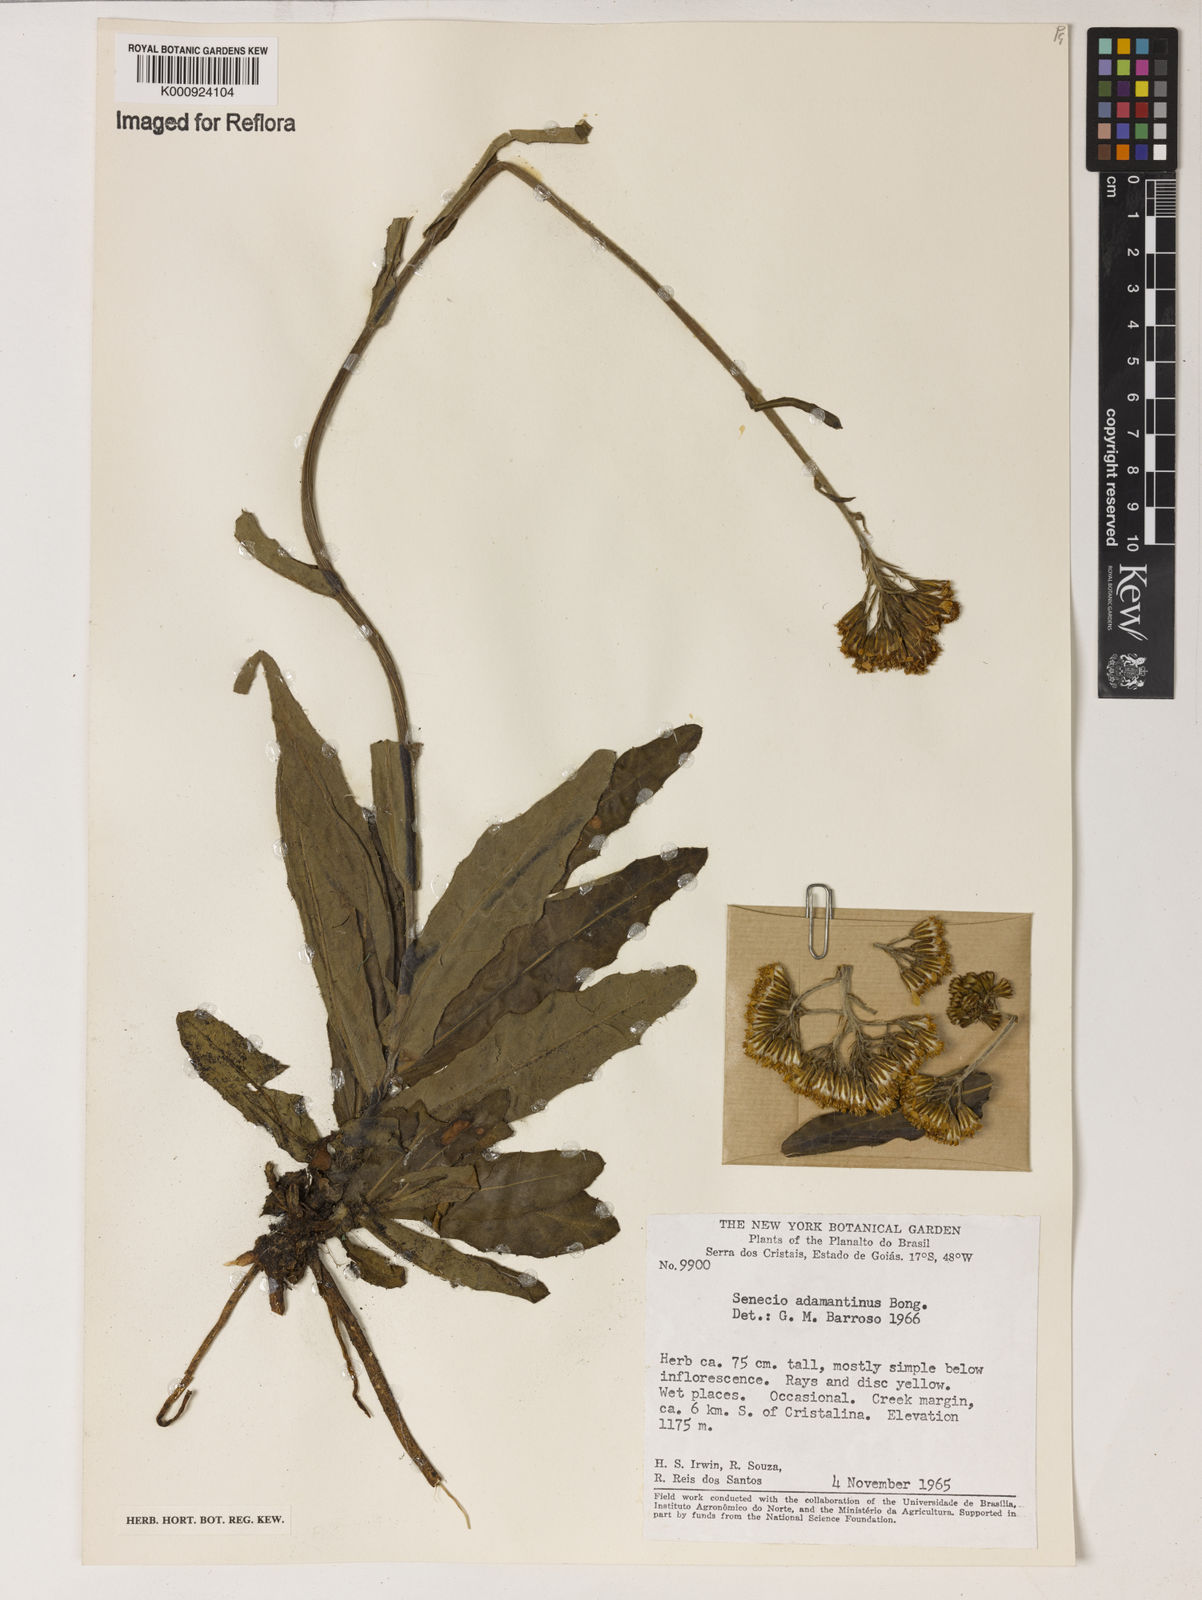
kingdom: Plantae
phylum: Tracheophyta
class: Magnoliopsida
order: Asterales
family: Asteraceae
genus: Senecio
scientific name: Senecio
